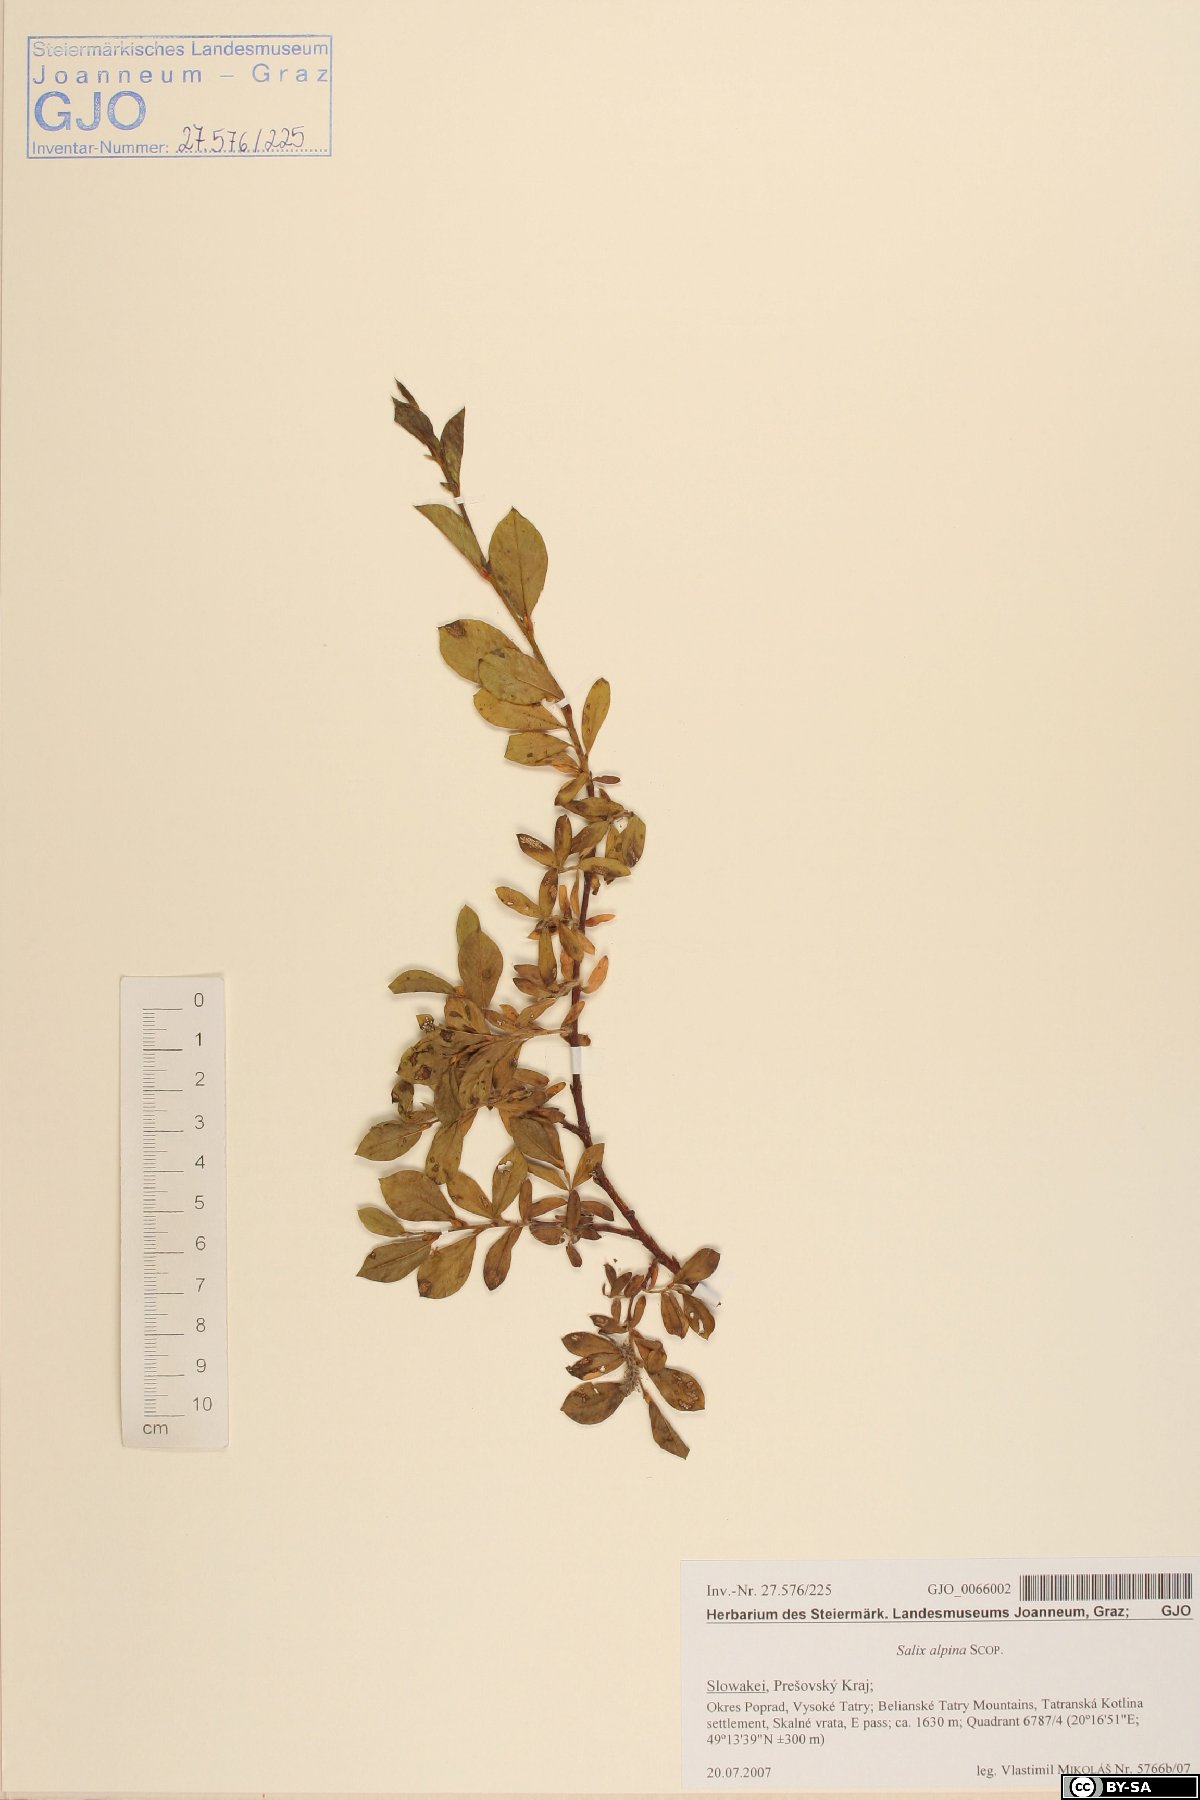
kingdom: Plantae
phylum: Tracheophyta
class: Magnoliopsida
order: Malpighiales
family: Salicaceae
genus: Salix
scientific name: Salix alpina
